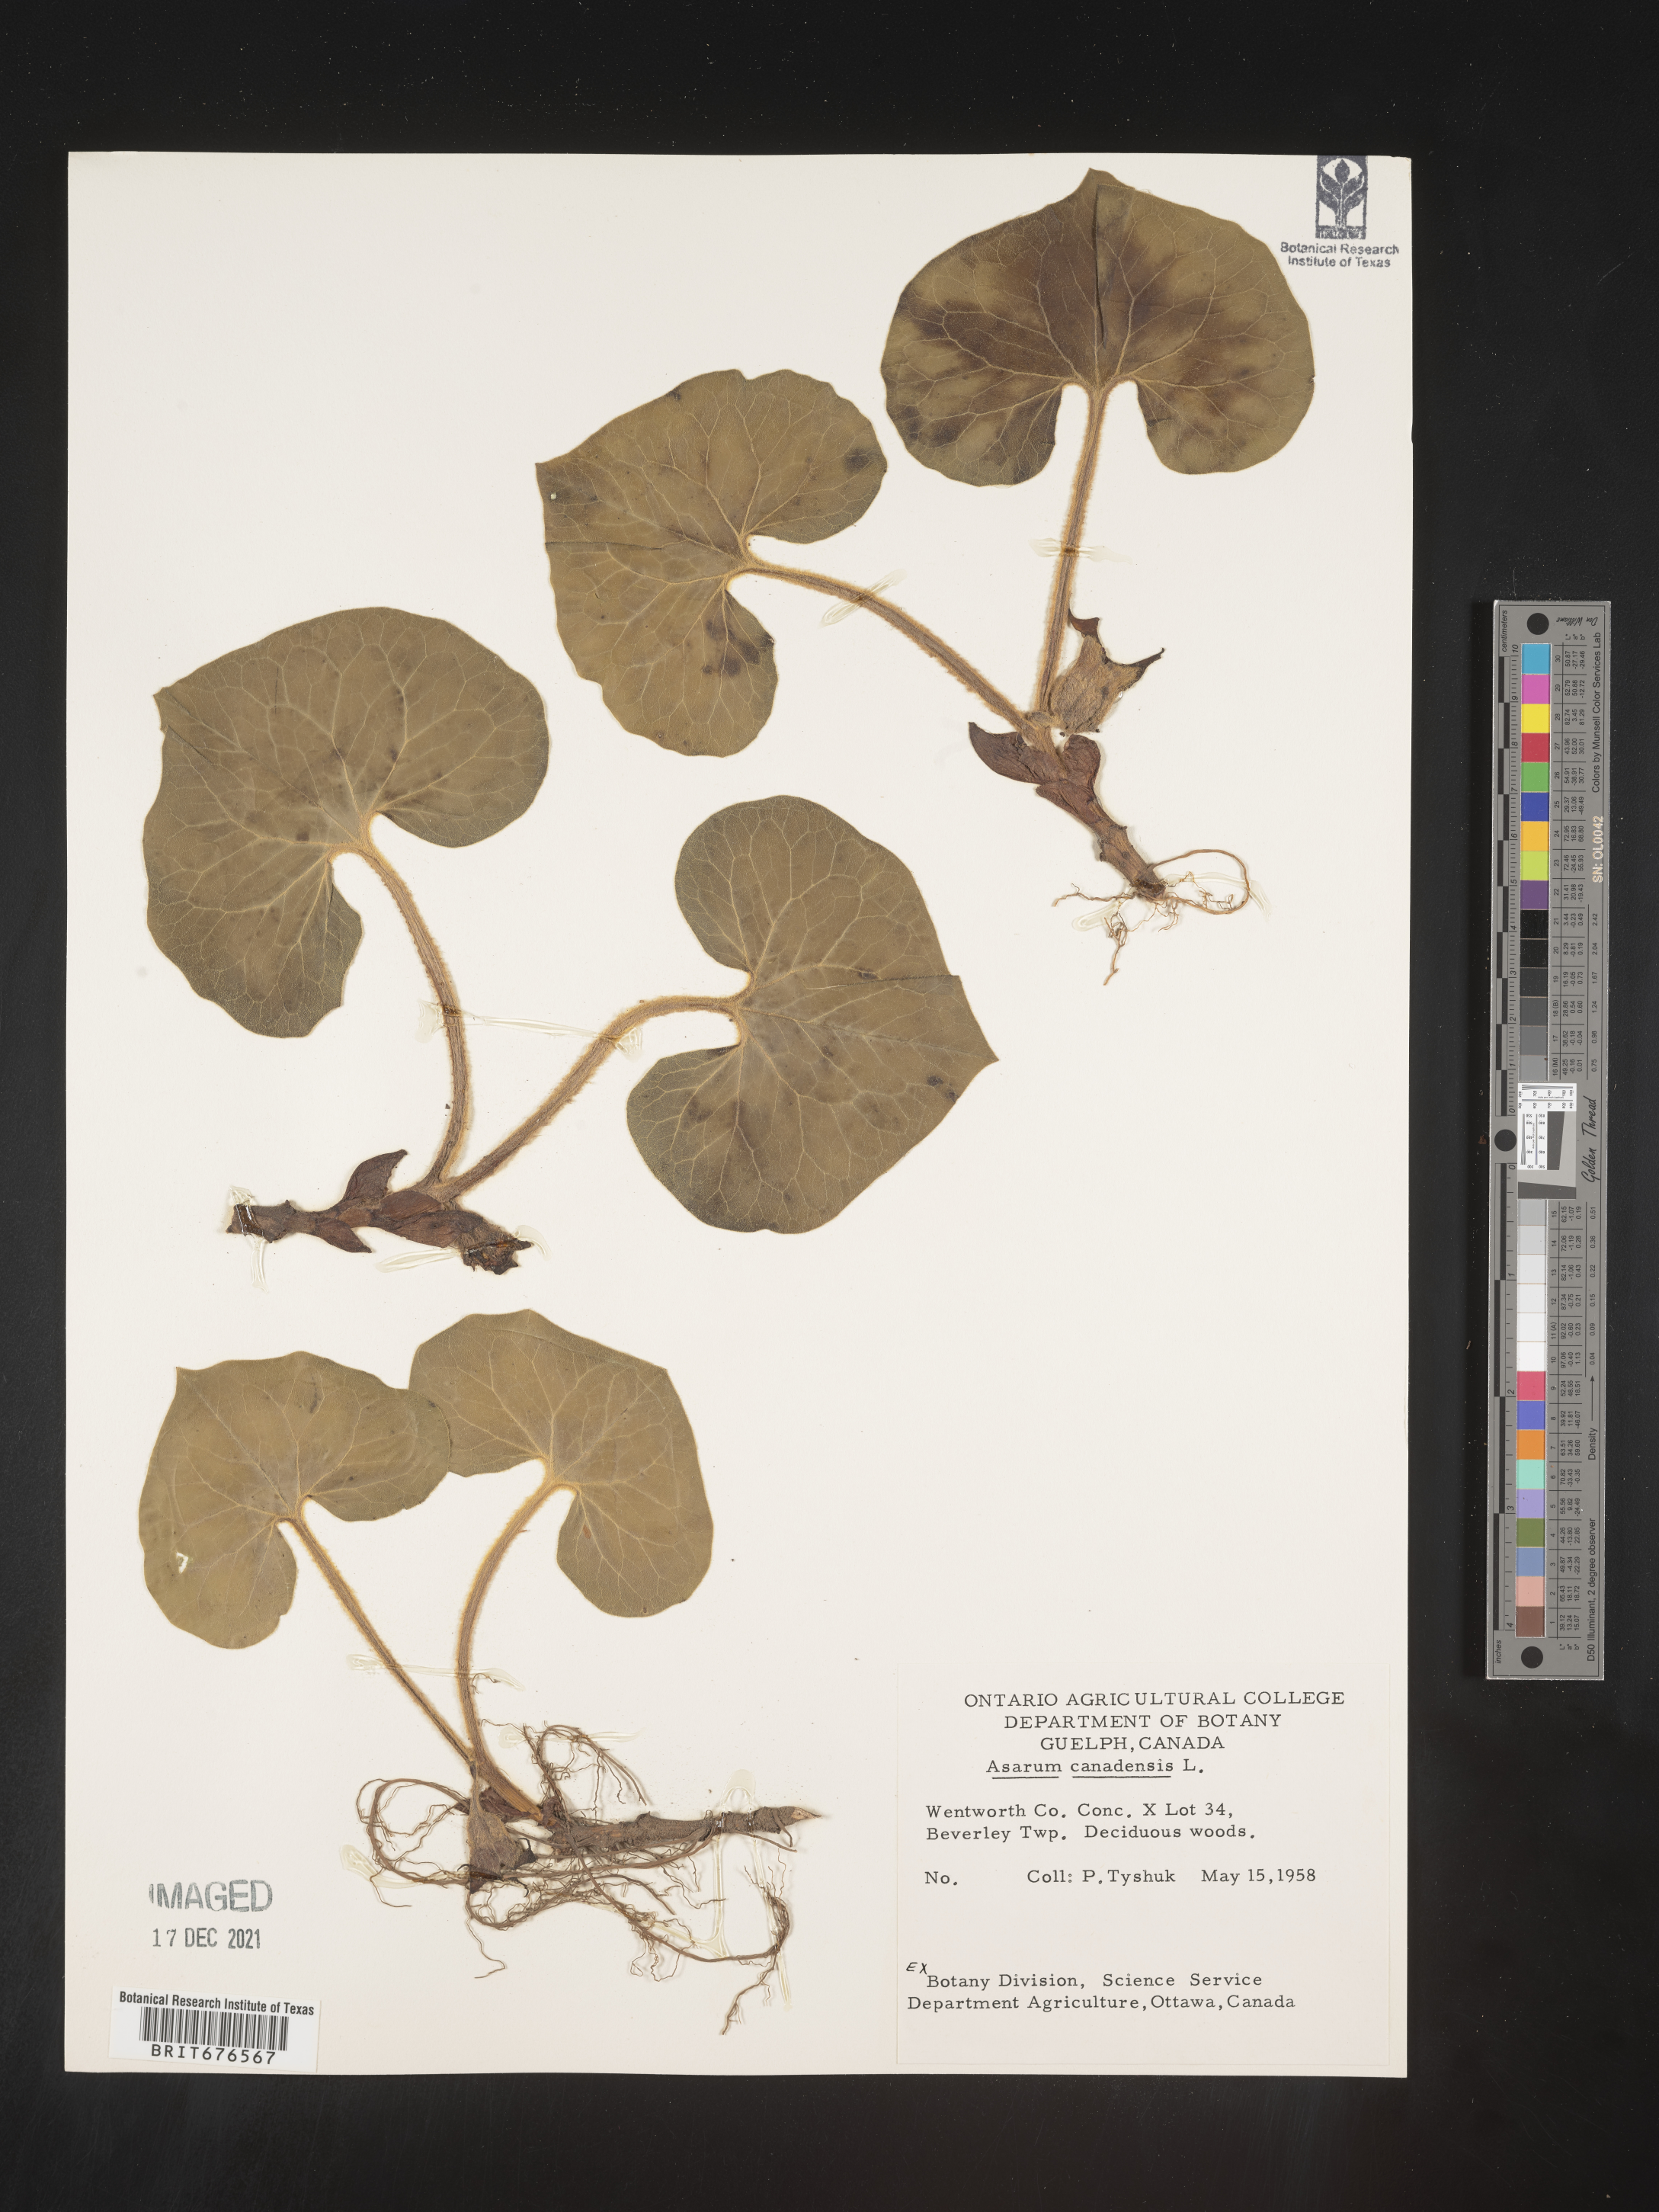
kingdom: Plantae
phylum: Tracheophyta
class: Magnoliopsida
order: Piperales
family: Aristolochiaceae
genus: Asarum
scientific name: Asarum canadense
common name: Wild ginger
